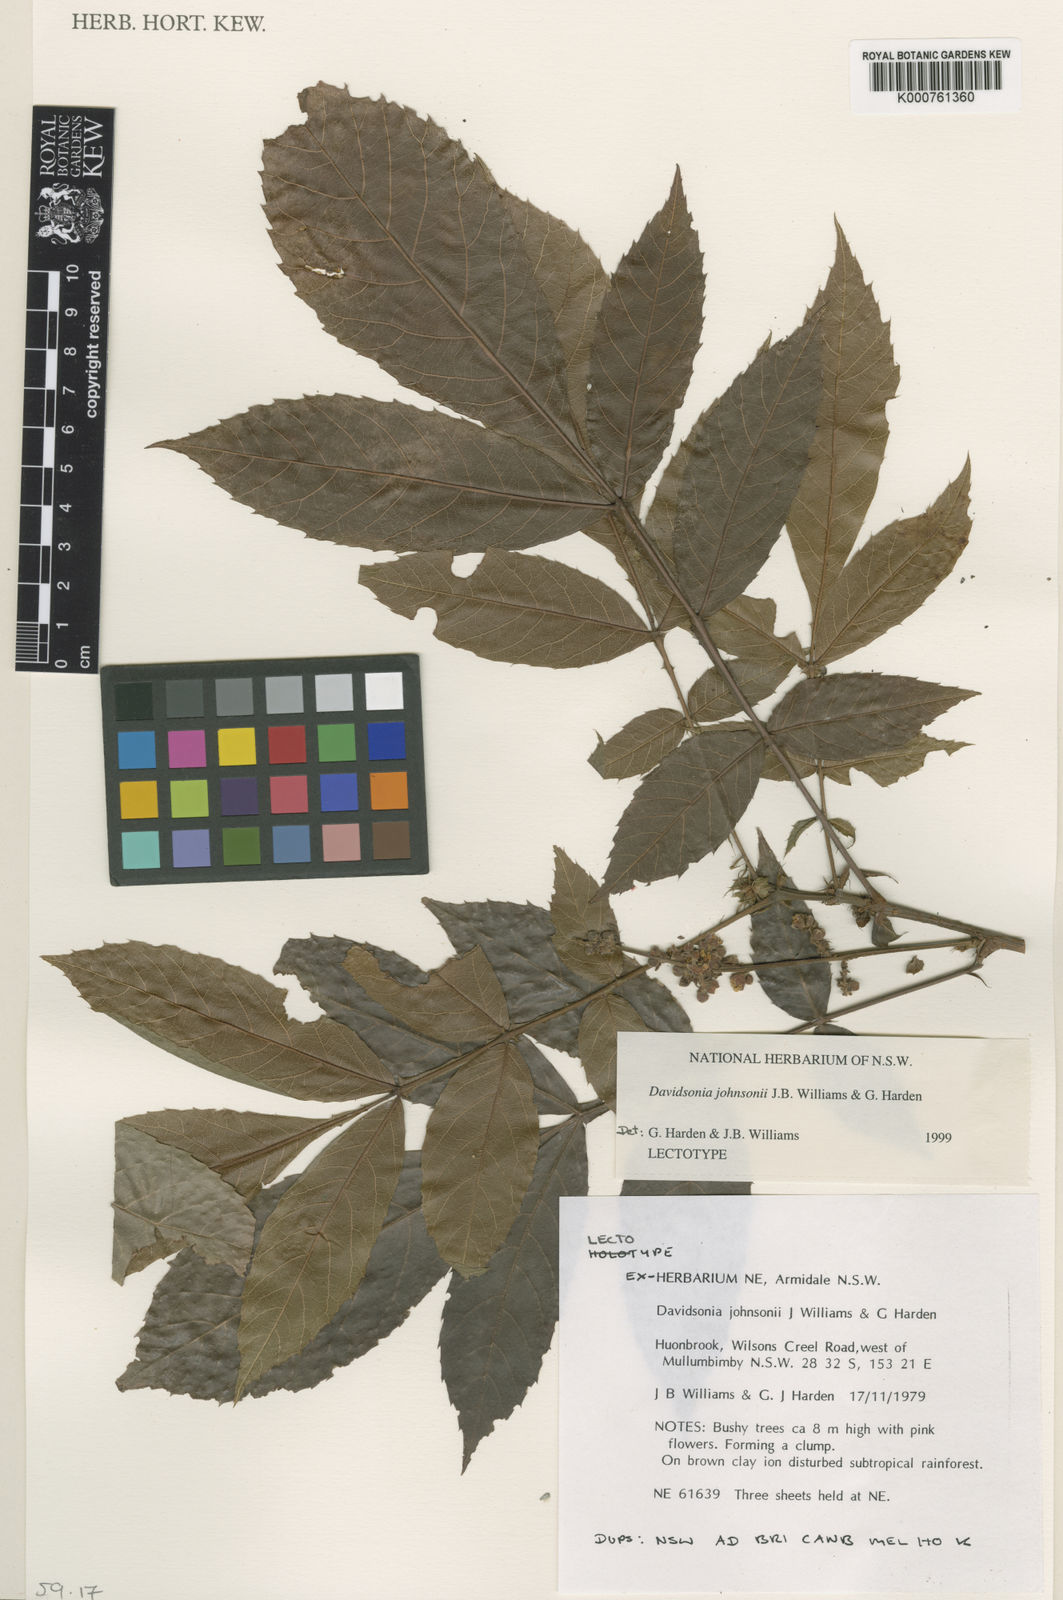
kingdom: Plantae
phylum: Tracheophyta
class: Magnoliopsida
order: Oxalidales
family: Cunoniaceae
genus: Davidsonia
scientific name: Davidsonia johnsonii
